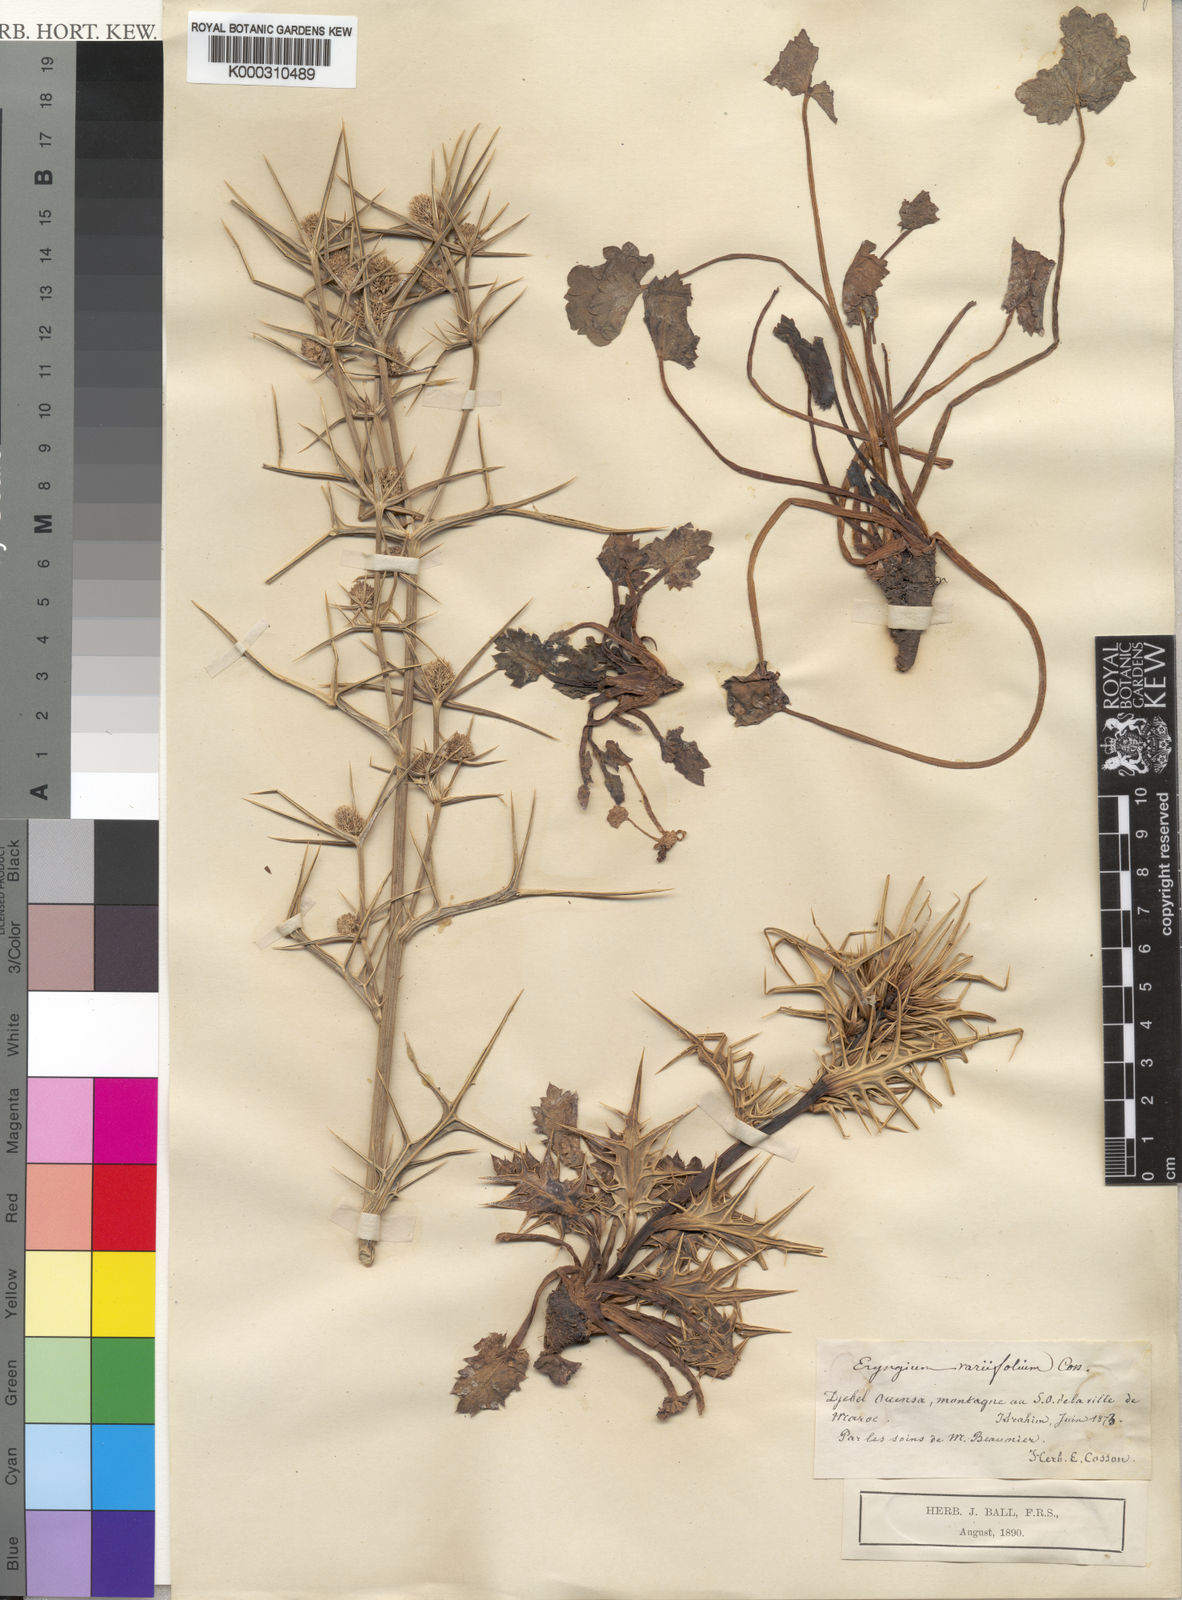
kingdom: Plantae
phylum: Tracheophyta
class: Magnoliopsida
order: Apiales
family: Apiaceae
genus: Eryngium
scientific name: Eryngium variifolium
